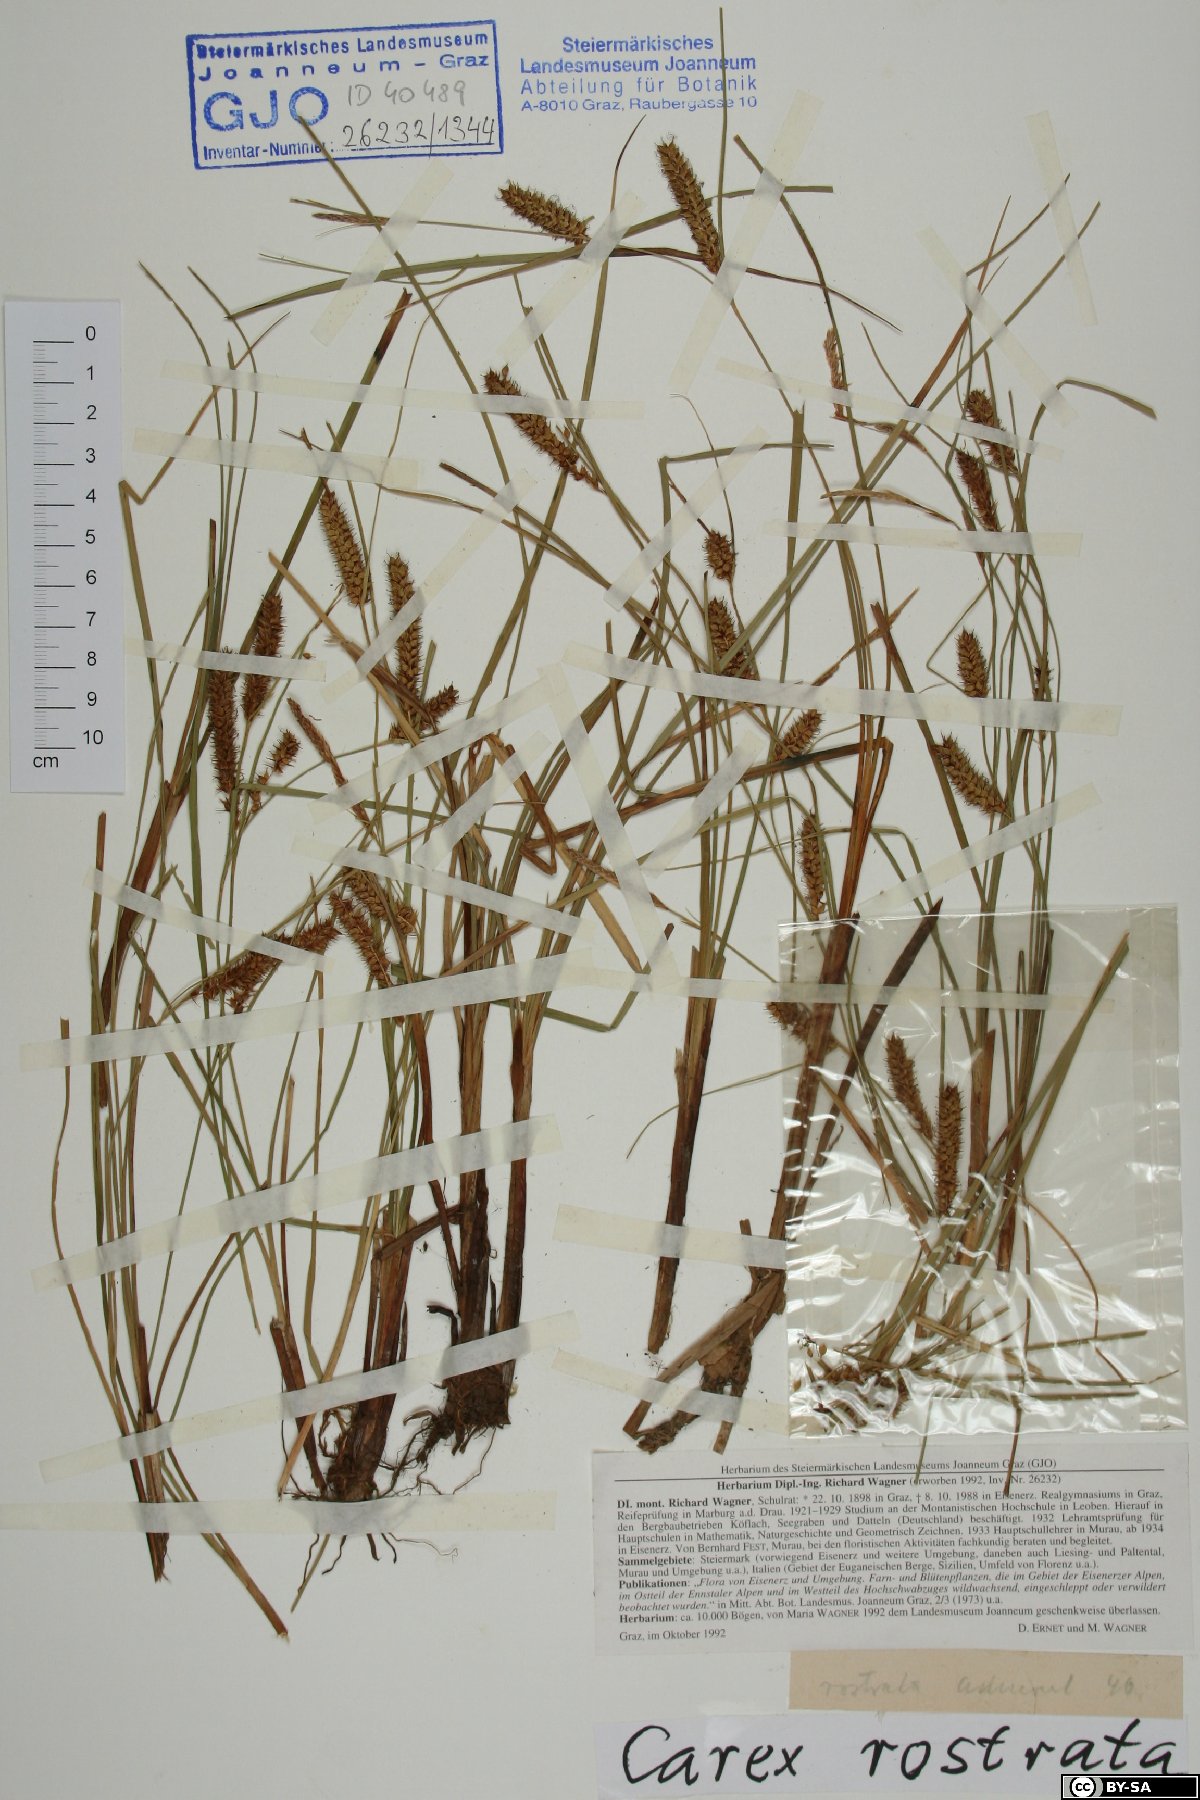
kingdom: Plantae
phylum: Tracheophyta
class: Liliopsida
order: Poales
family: Cyperaceae
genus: Carex
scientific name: Carex rostrata
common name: Bottle sedge
